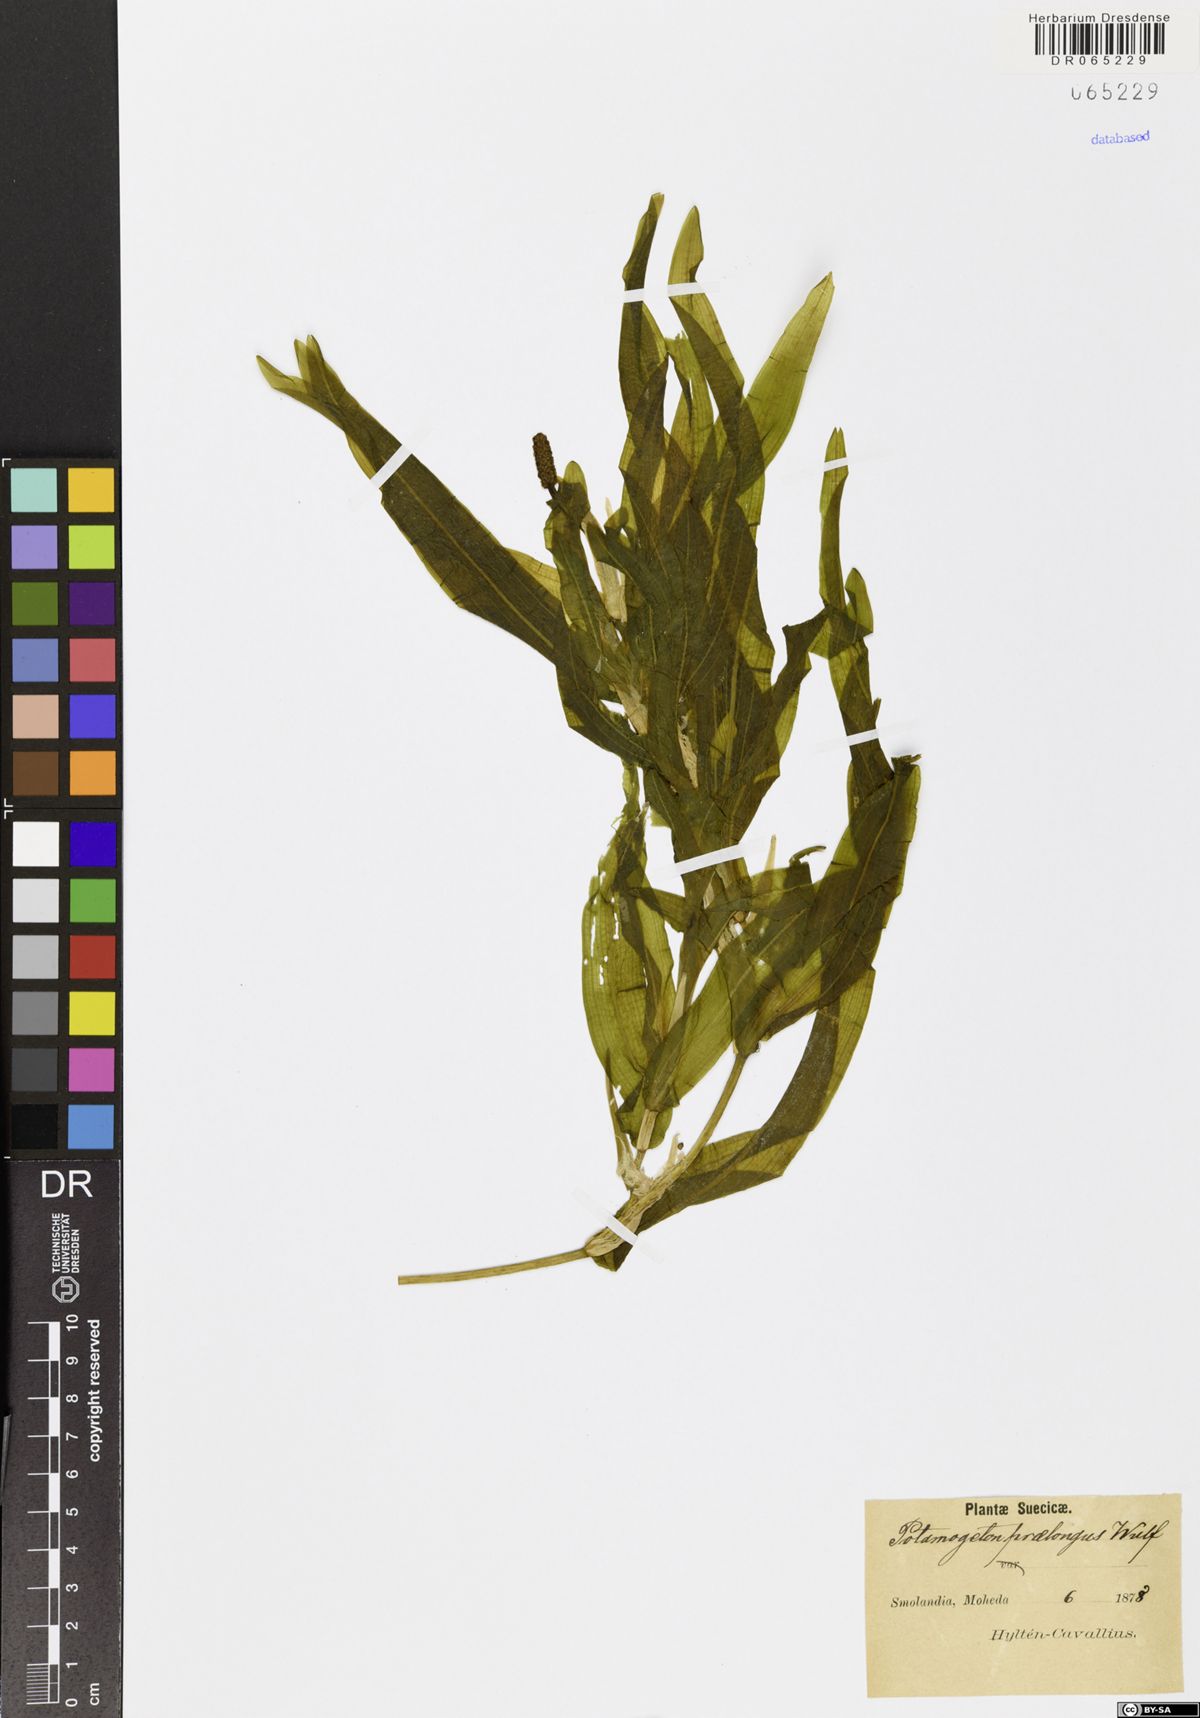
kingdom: Plantae
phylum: Tracheophyta
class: Liliopsida
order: Alismatales
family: Potamogetonaceae
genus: Potamogeton
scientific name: Potamogeton praelongus
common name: Long-stalked pondweed
